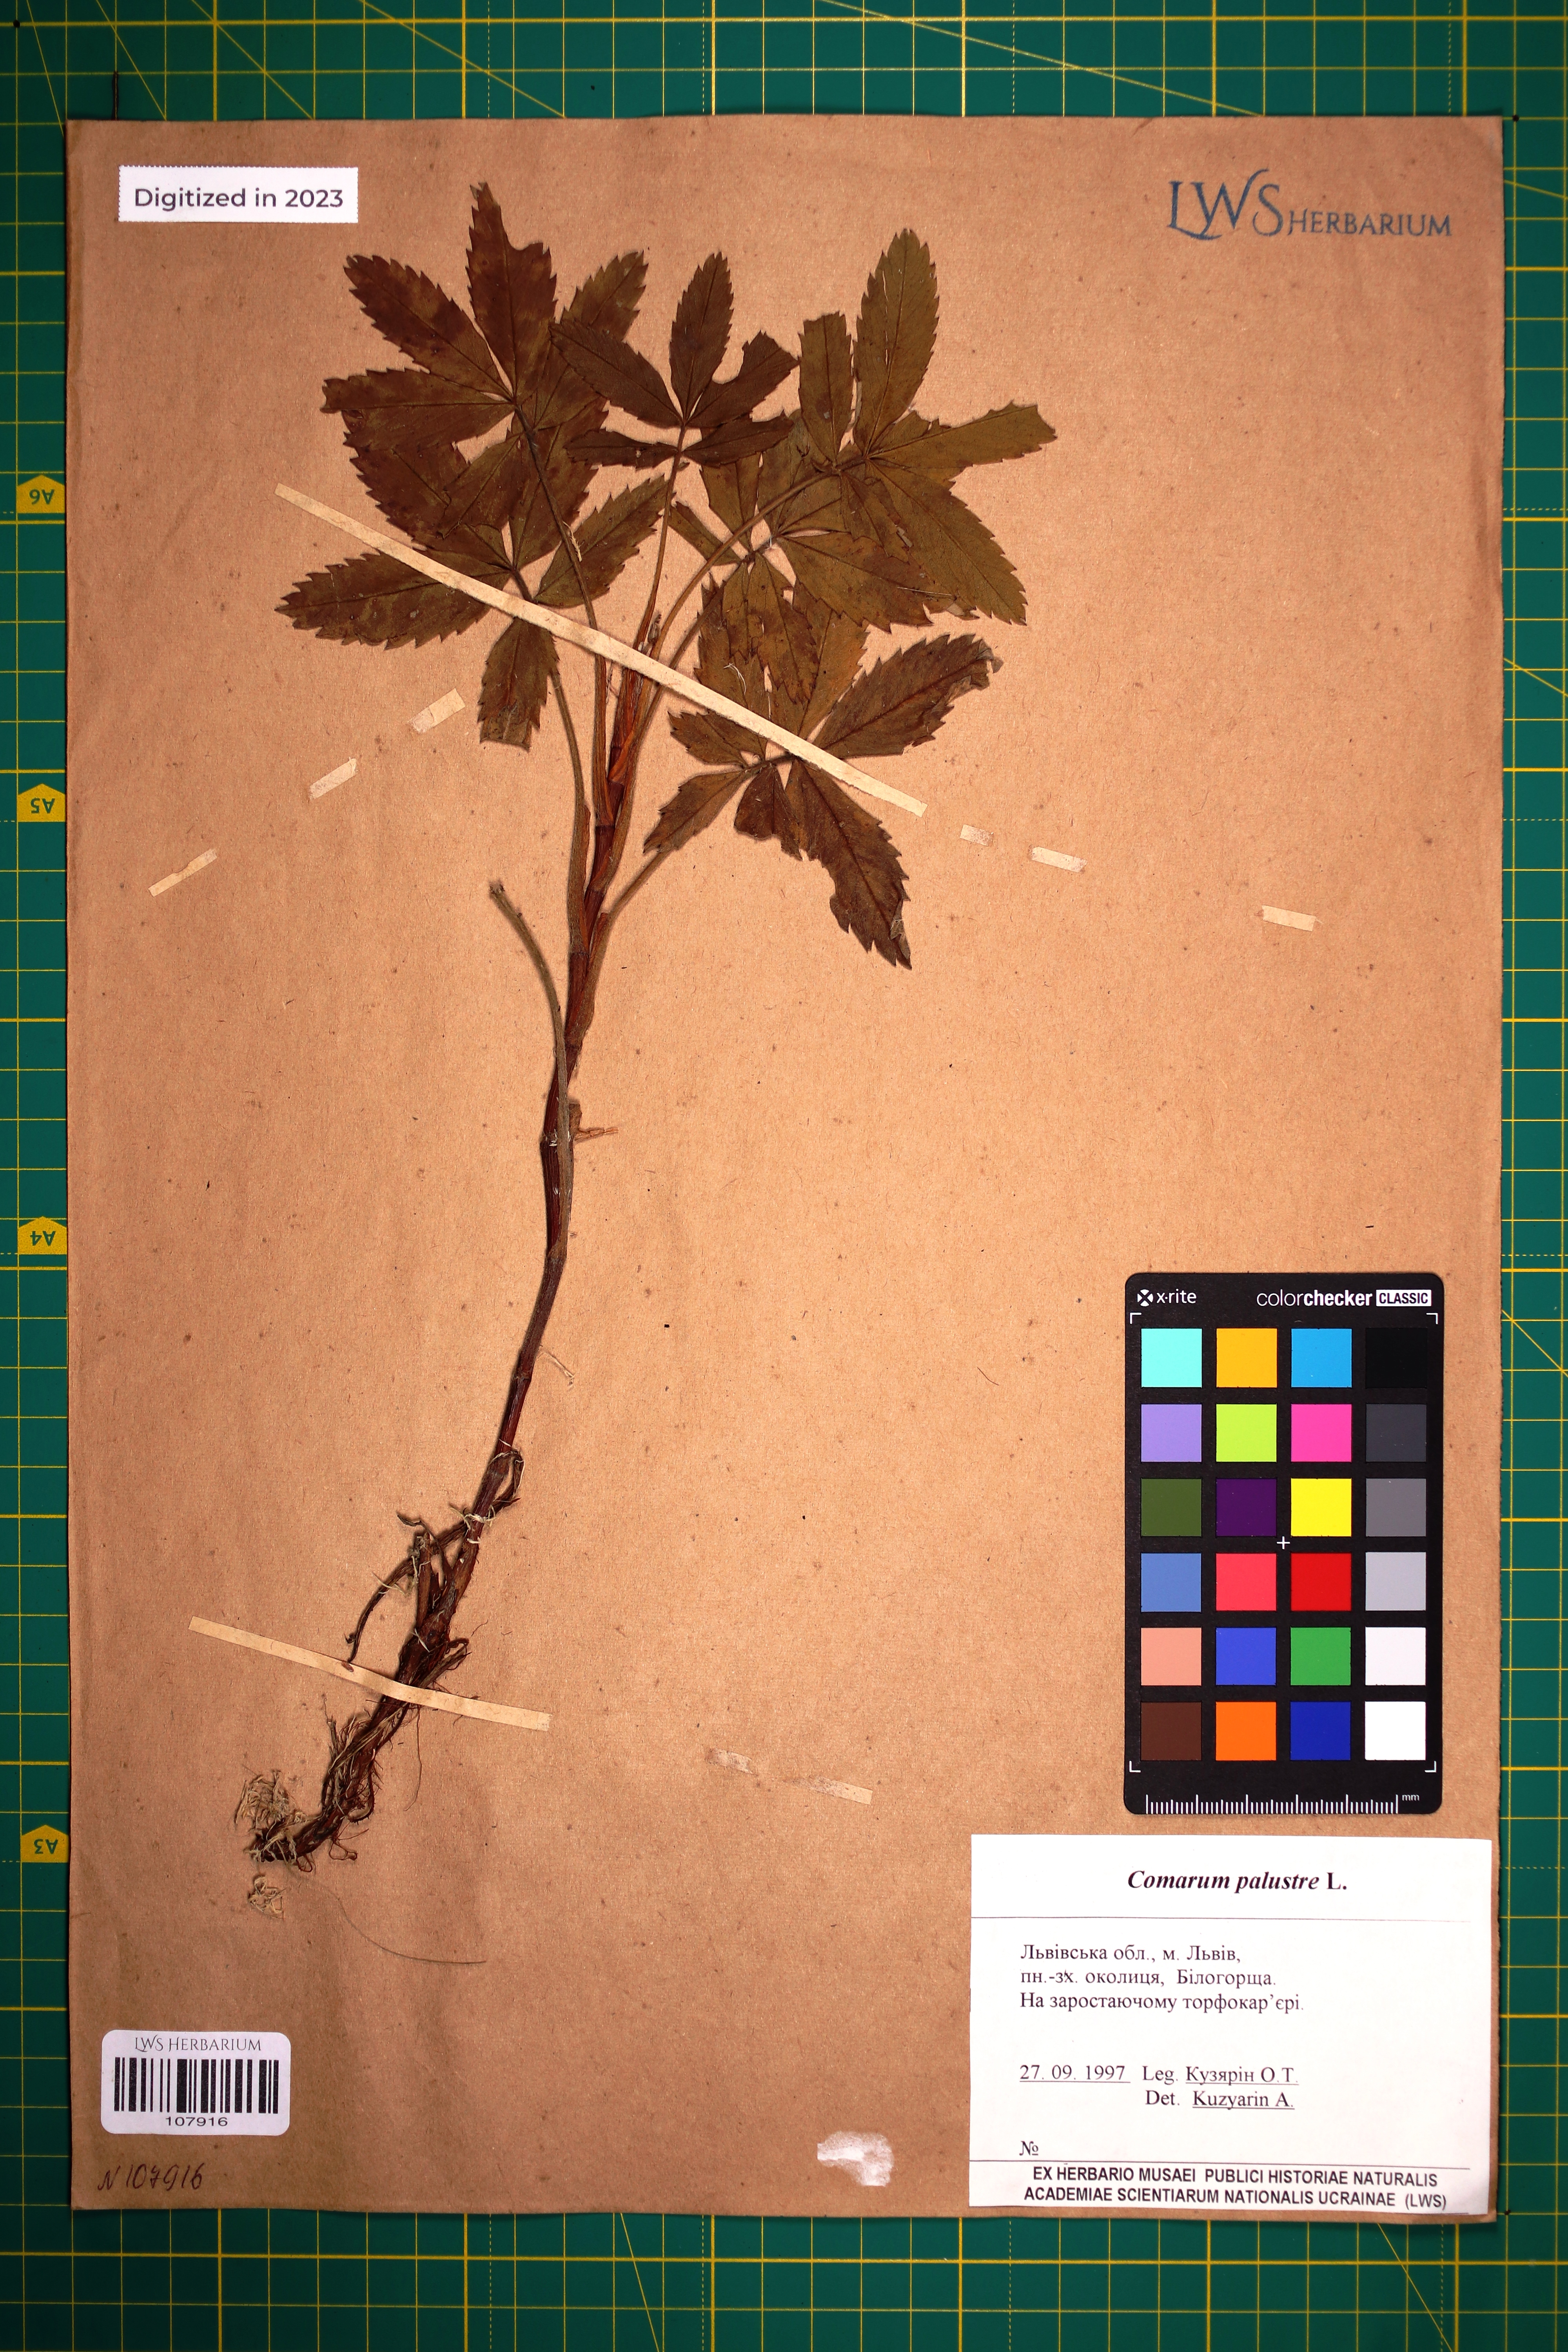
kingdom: Plantae
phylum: Tracheophyta
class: Magnoliopsida
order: Rosales
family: Rosaceae
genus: Comarum
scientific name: Comarum palustre
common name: Marsh cinquefoil
